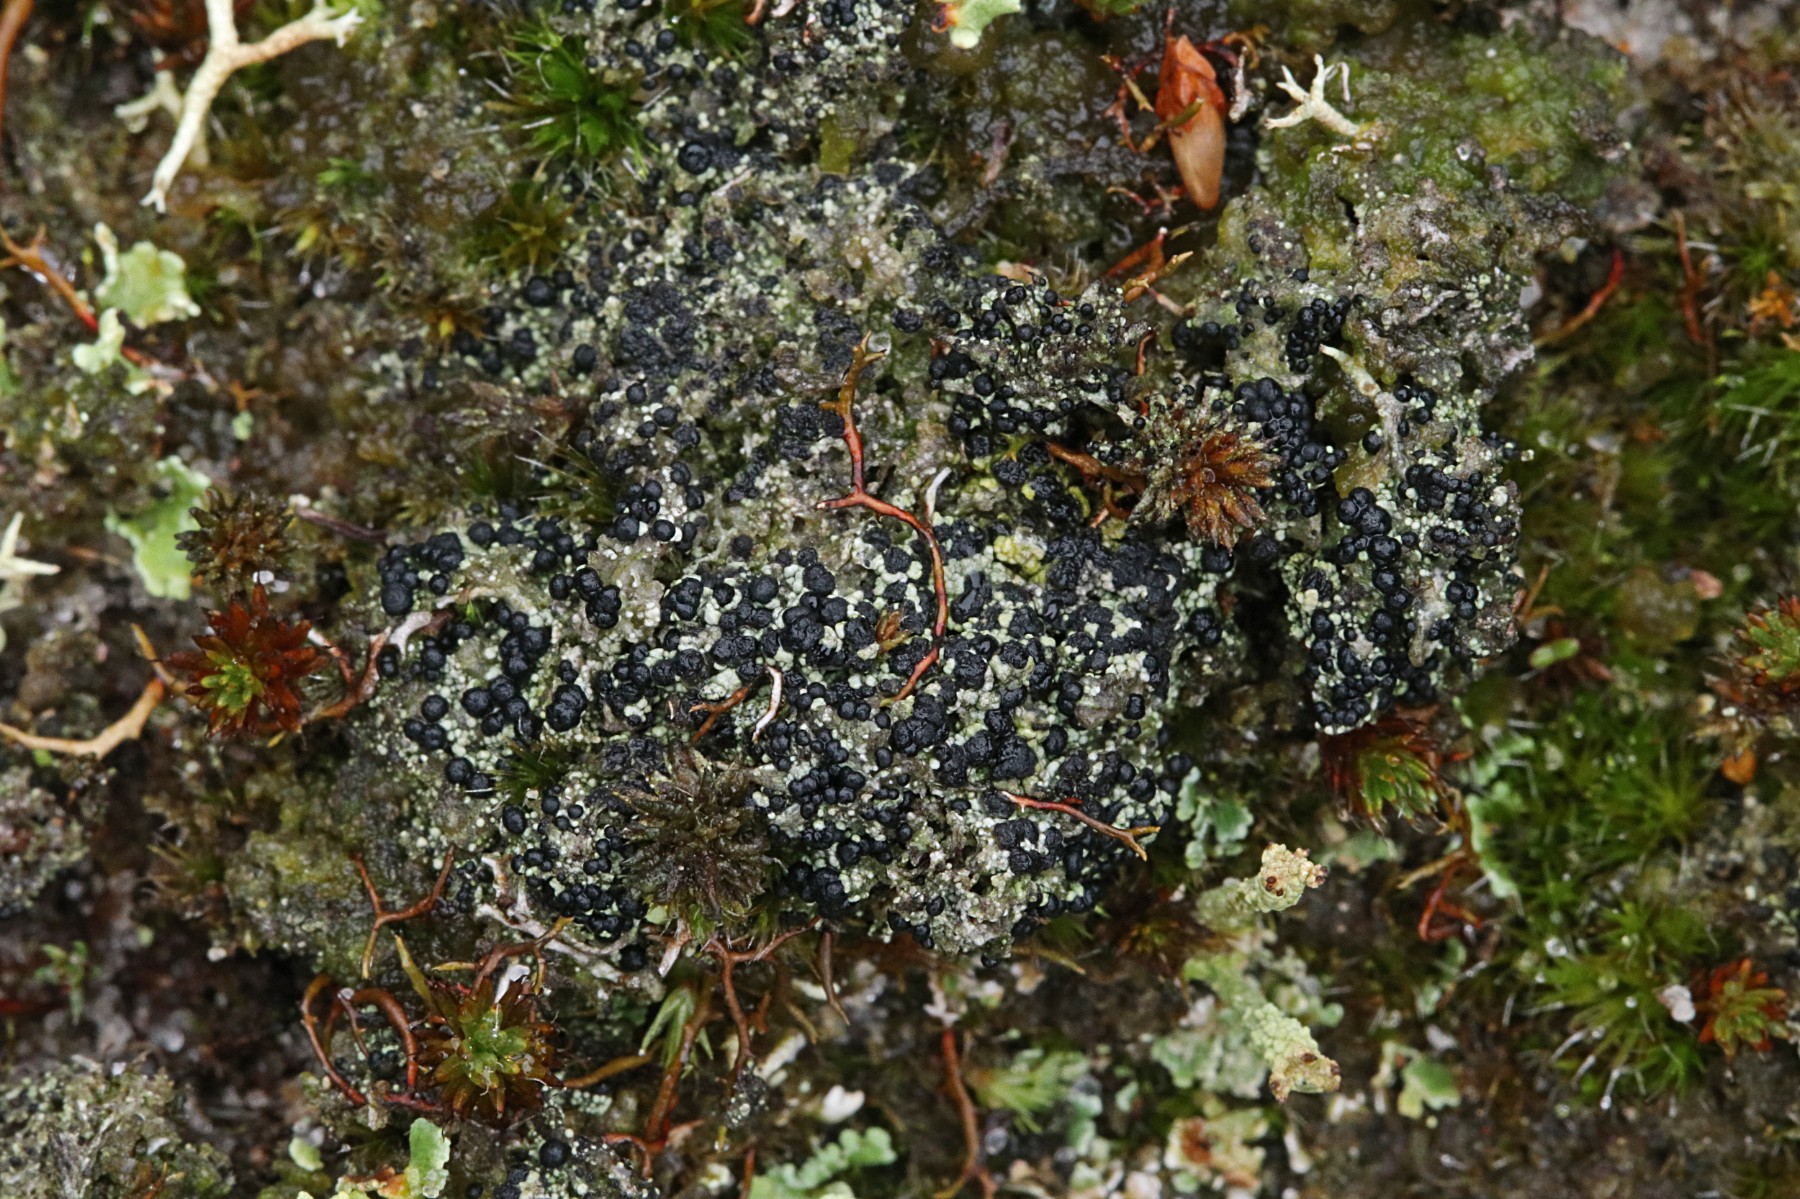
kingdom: Fungi
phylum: Ascomycota
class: Lecanoromycetes
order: Lecanorales
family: Byssolomataceae
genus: Micarea
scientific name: Micarea lignaria
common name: tørve-knaplav
